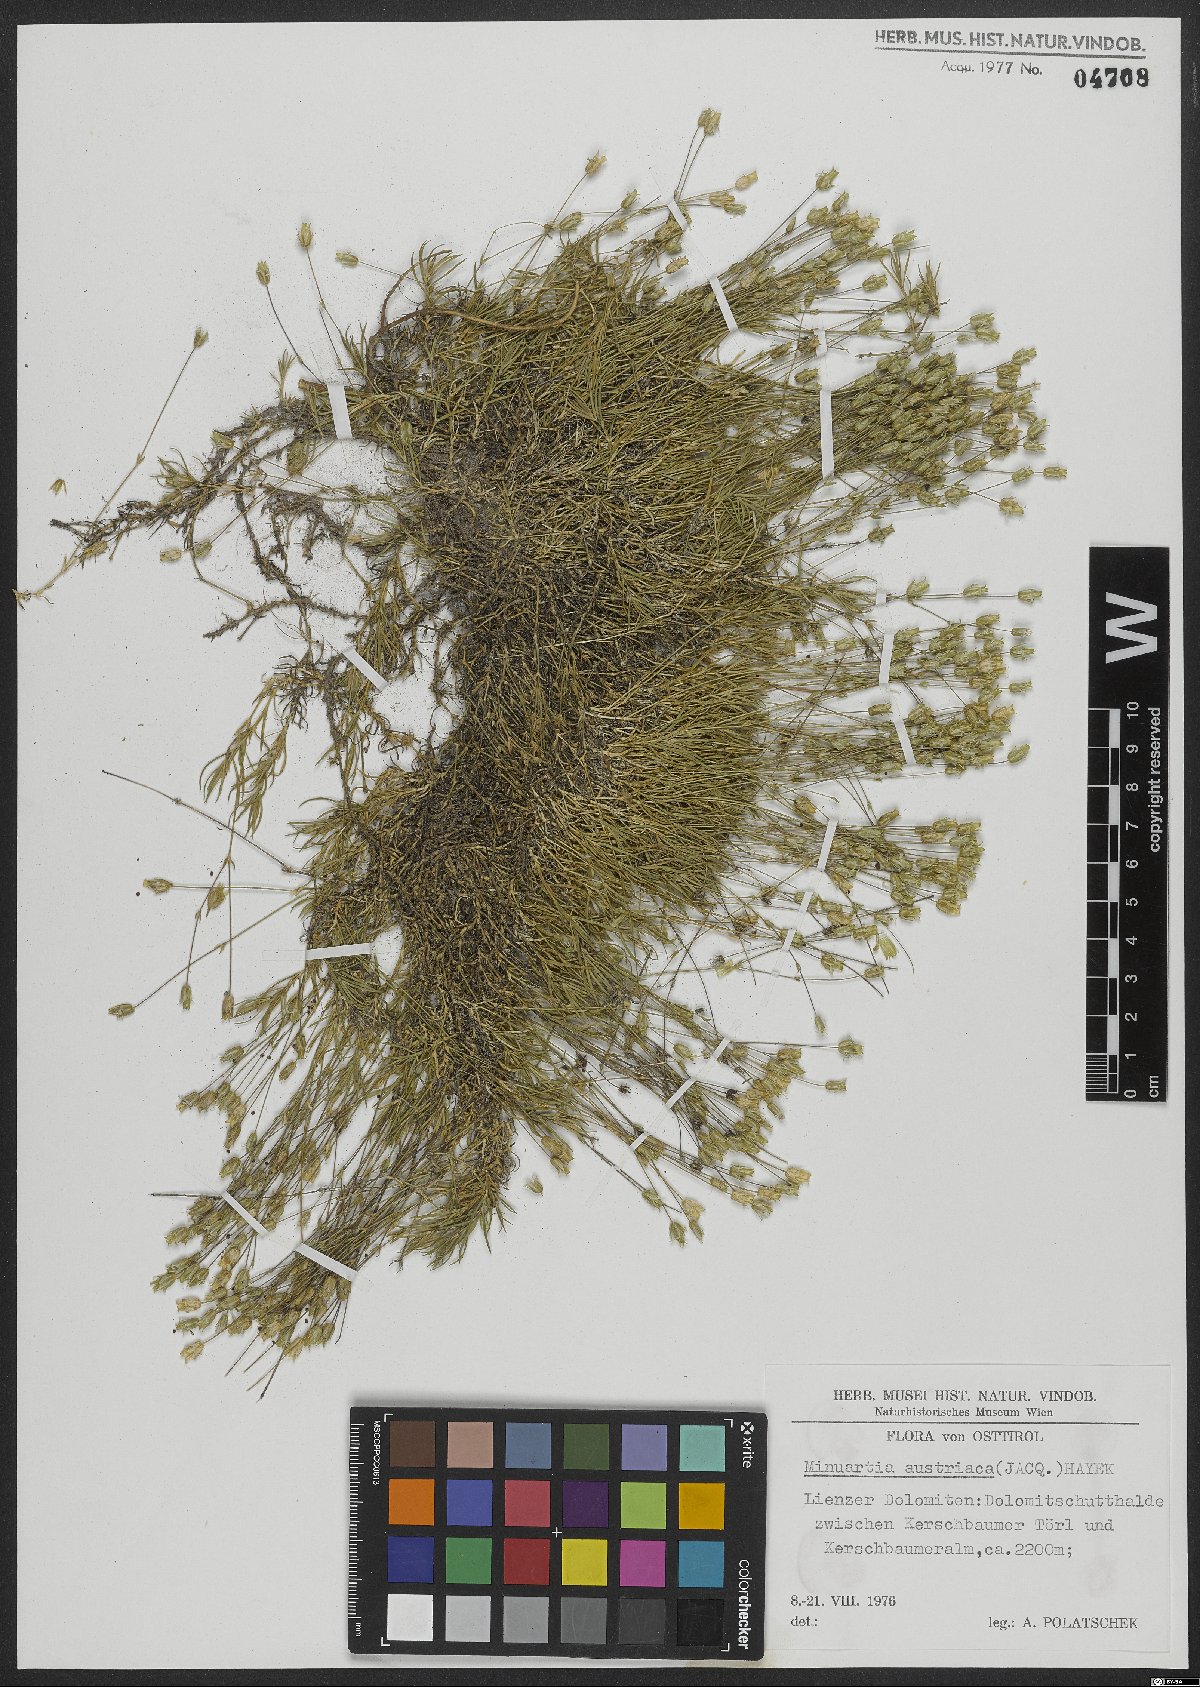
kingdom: Plantae
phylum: Tracheophyta
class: Magnoliopsida
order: Caryophyllales
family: Caryophyllaceae
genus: Sabulina
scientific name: Sabulina austriaca
